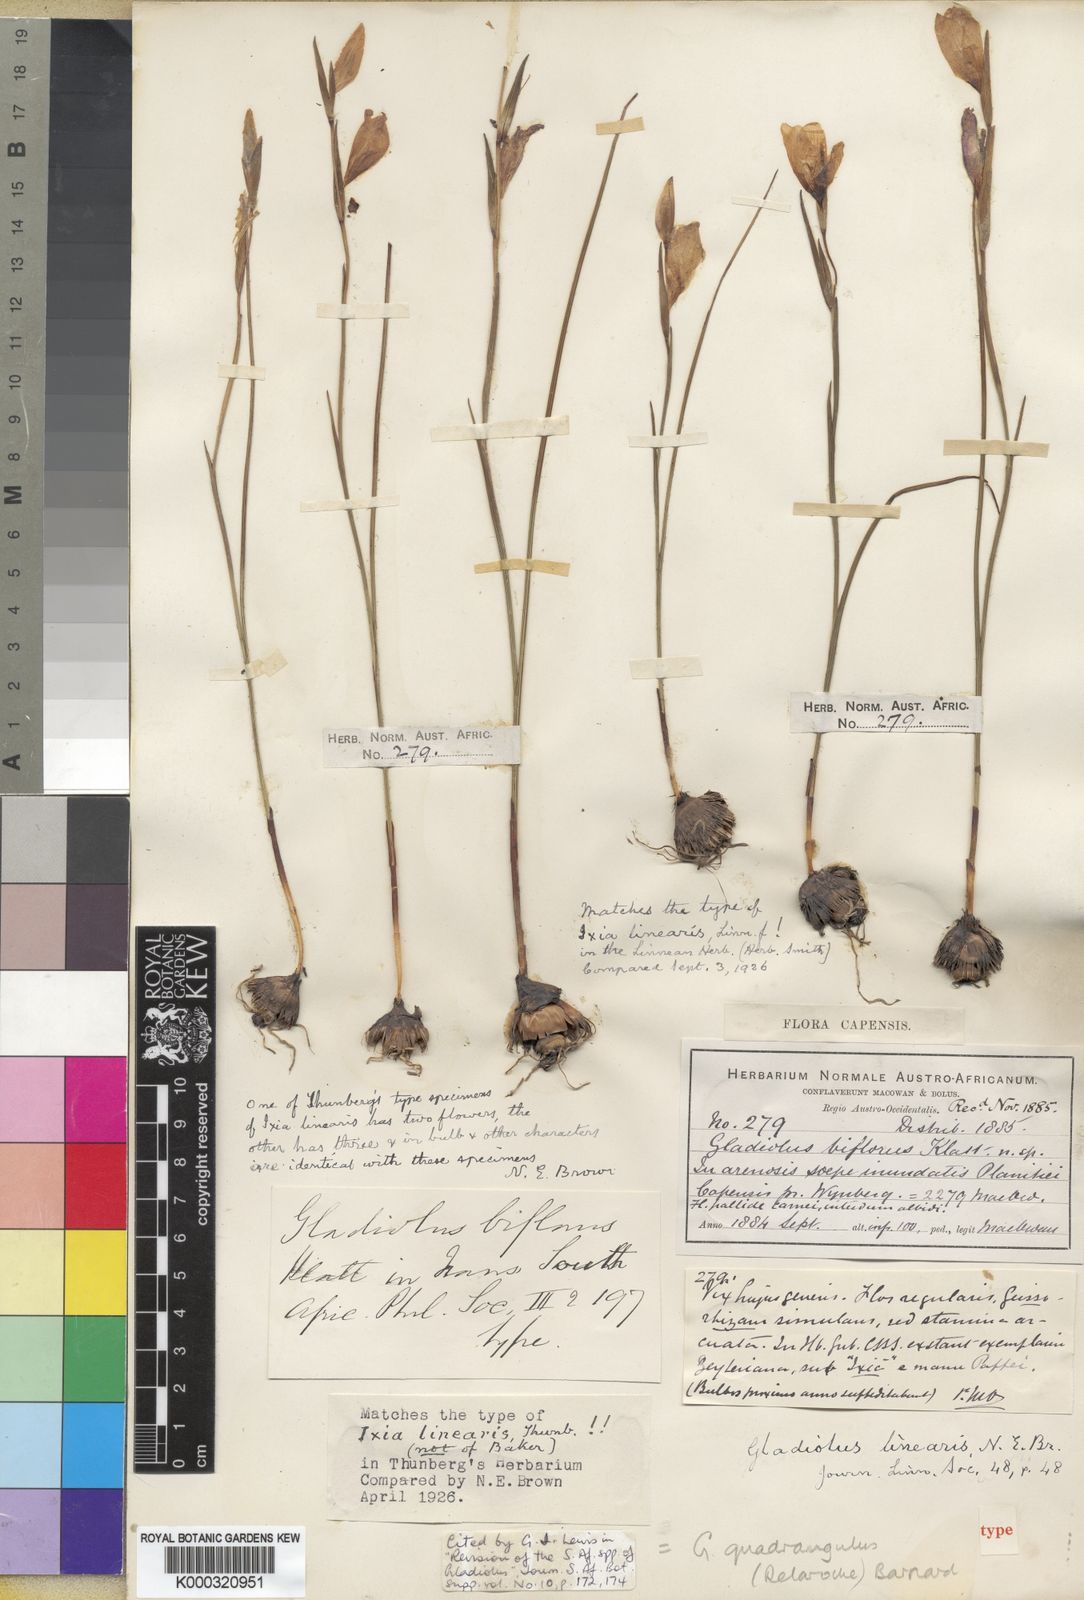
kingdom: Plantae
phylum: Tracheophyta
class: Liliopsida
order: Asparagales
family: Iridaceae
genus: Gladiolus
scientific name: Gladiolus quadrangulus
